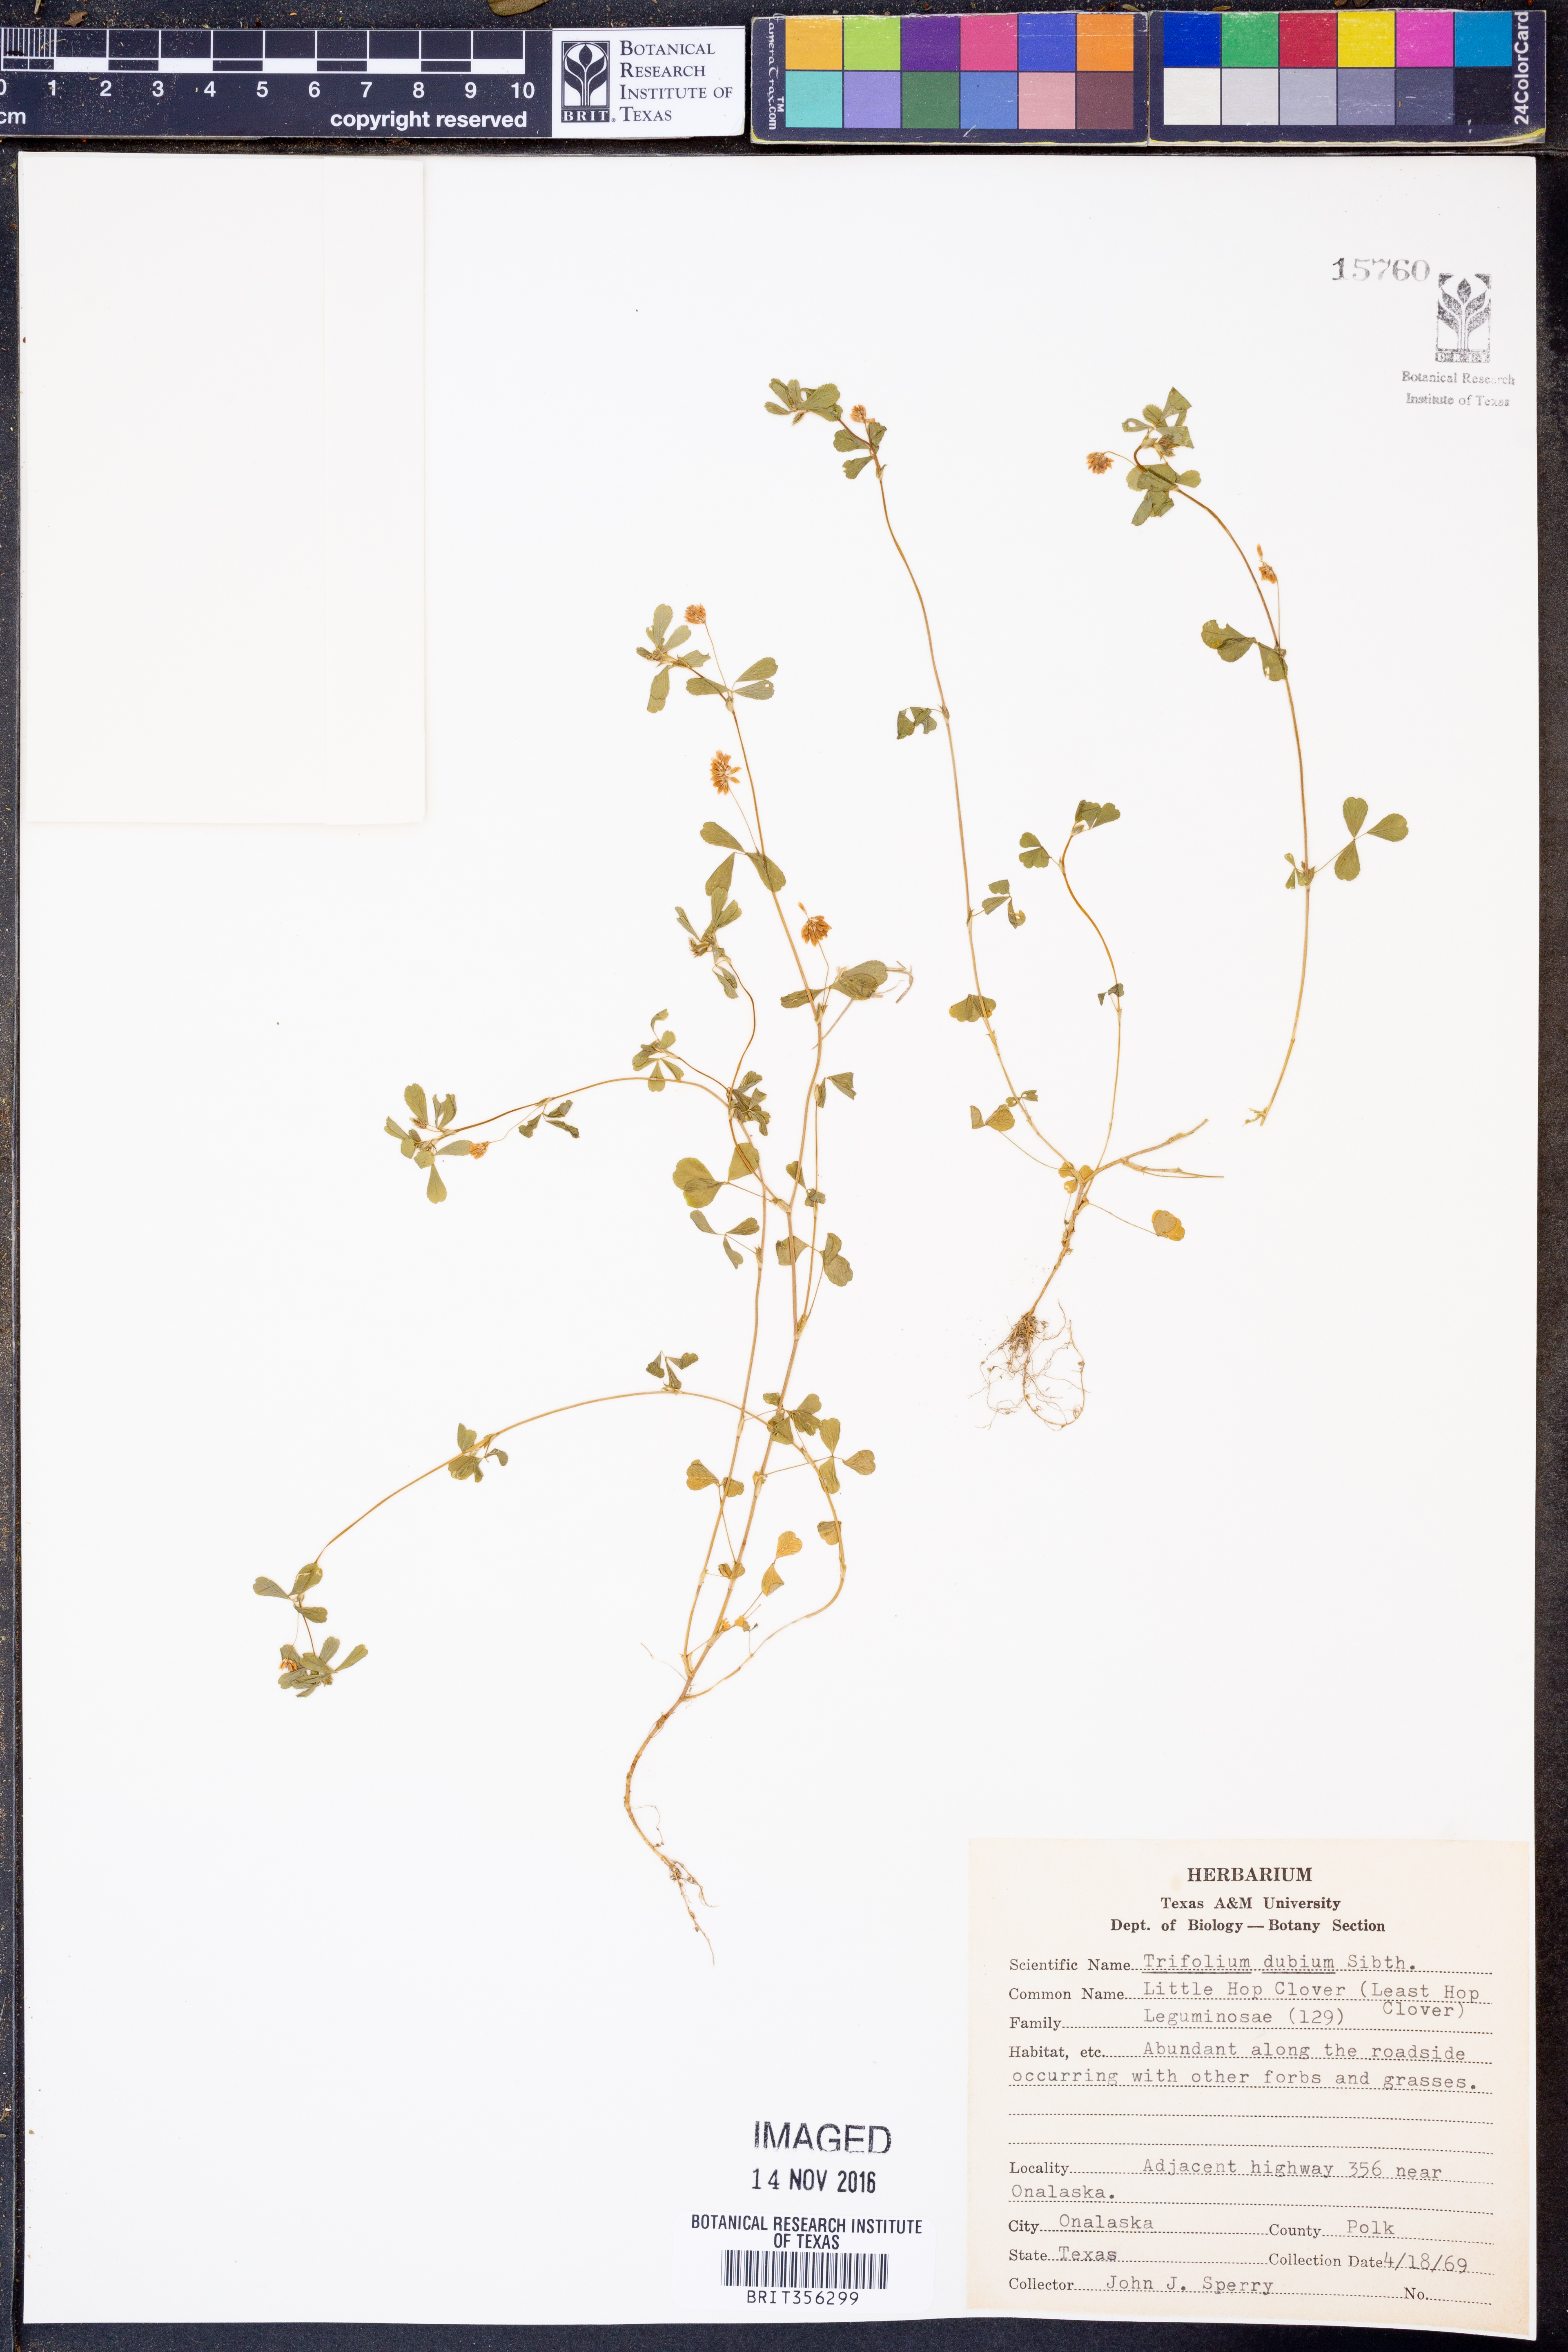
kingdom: Plantae
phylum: Tracheophyta
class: Magnoliopsida
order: Fabales
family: Fabaceae
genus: Trifolium
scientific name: Trifolium dubium
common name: Suckling clover
